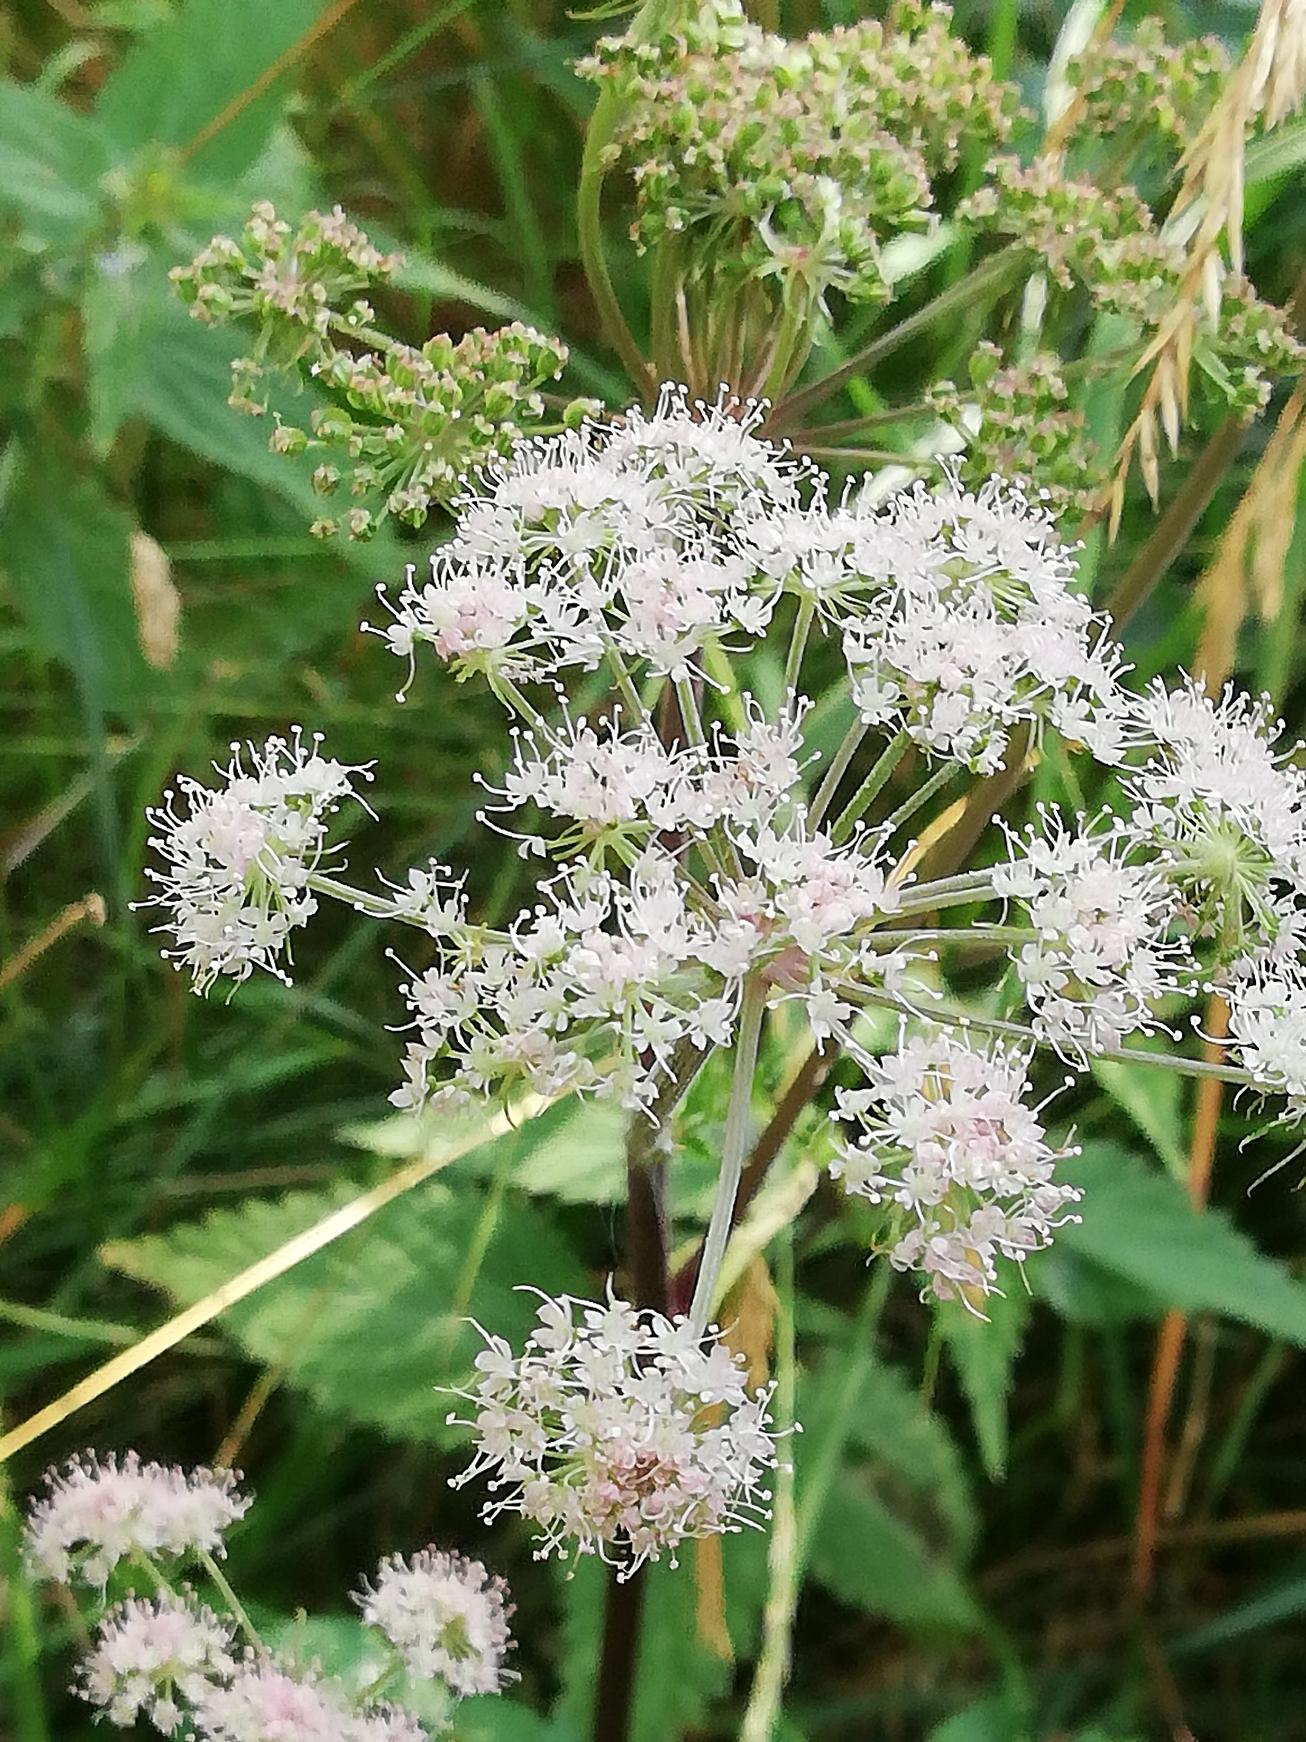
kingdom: Plantae
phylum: Tracheophyta
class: Magnoliopsida
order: Apiales
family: Apiaceae
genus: Angelica
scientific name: Angelica sylvestris
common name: Angelik
